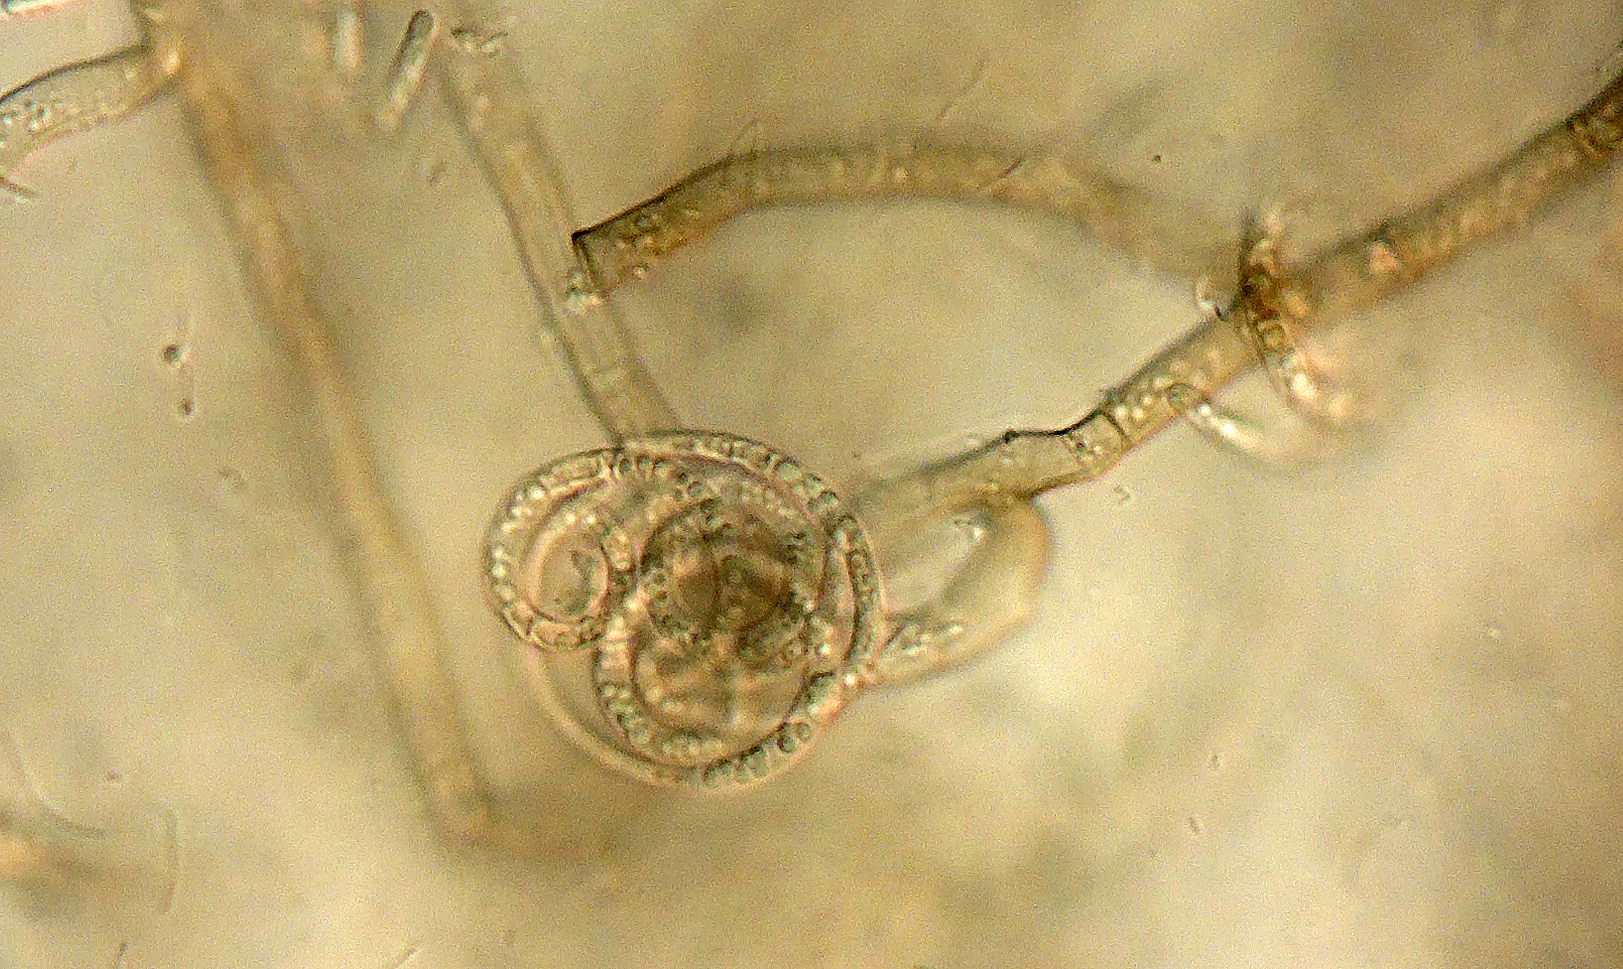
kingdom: Fungi
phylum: Ascomycota
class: Dothideomycetes
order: Tubeufiales
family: Tubeufiaceae
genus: Helicosporium
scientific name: Helicosporium
